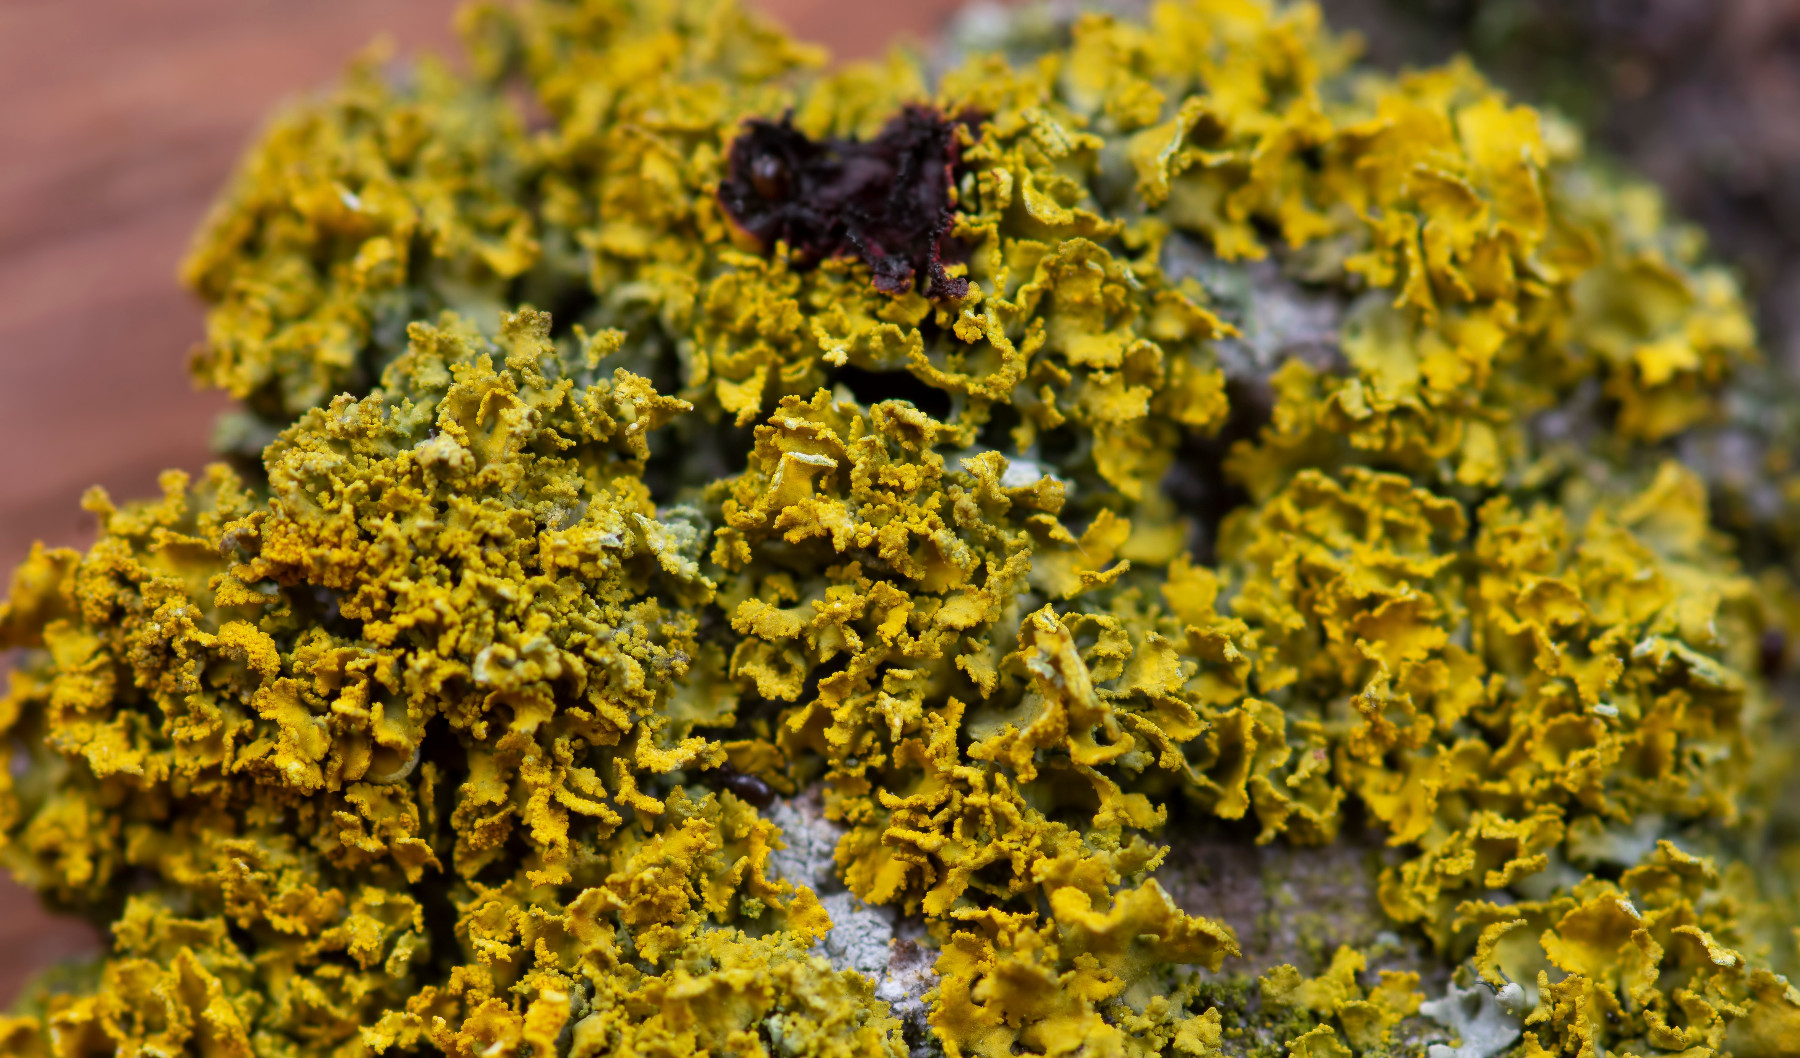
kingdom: Fungi
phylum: Ascomycota
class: Lecanoromycetes
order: Teloschistales
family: Teloschistaceae
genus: Polycauliona
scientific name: Polycauliona ucrainica
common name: småbladet orangelav
